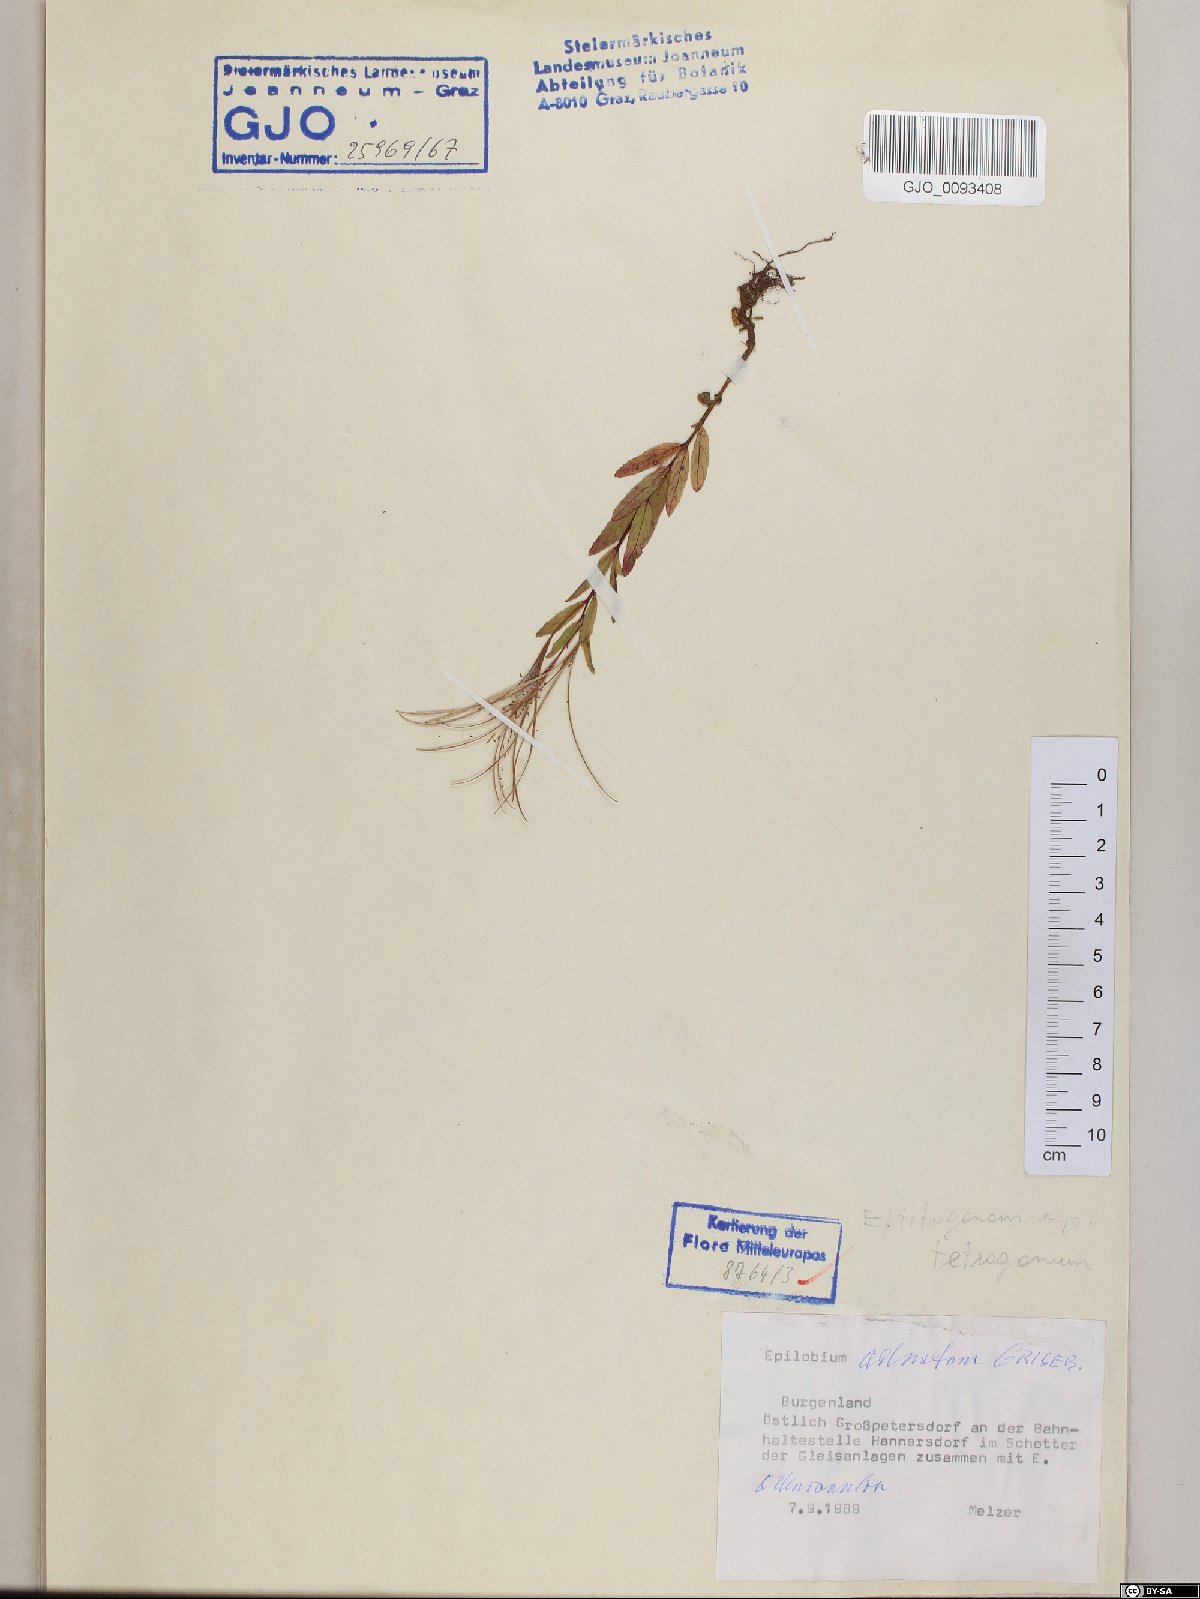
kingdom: Plantae
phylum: Tracheophyta
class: Magnoliopsida
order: Myrtales
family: Onagraceae
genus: Epilobium
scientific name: Epilobium tetragonum
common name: Square-stemmed willowherb
